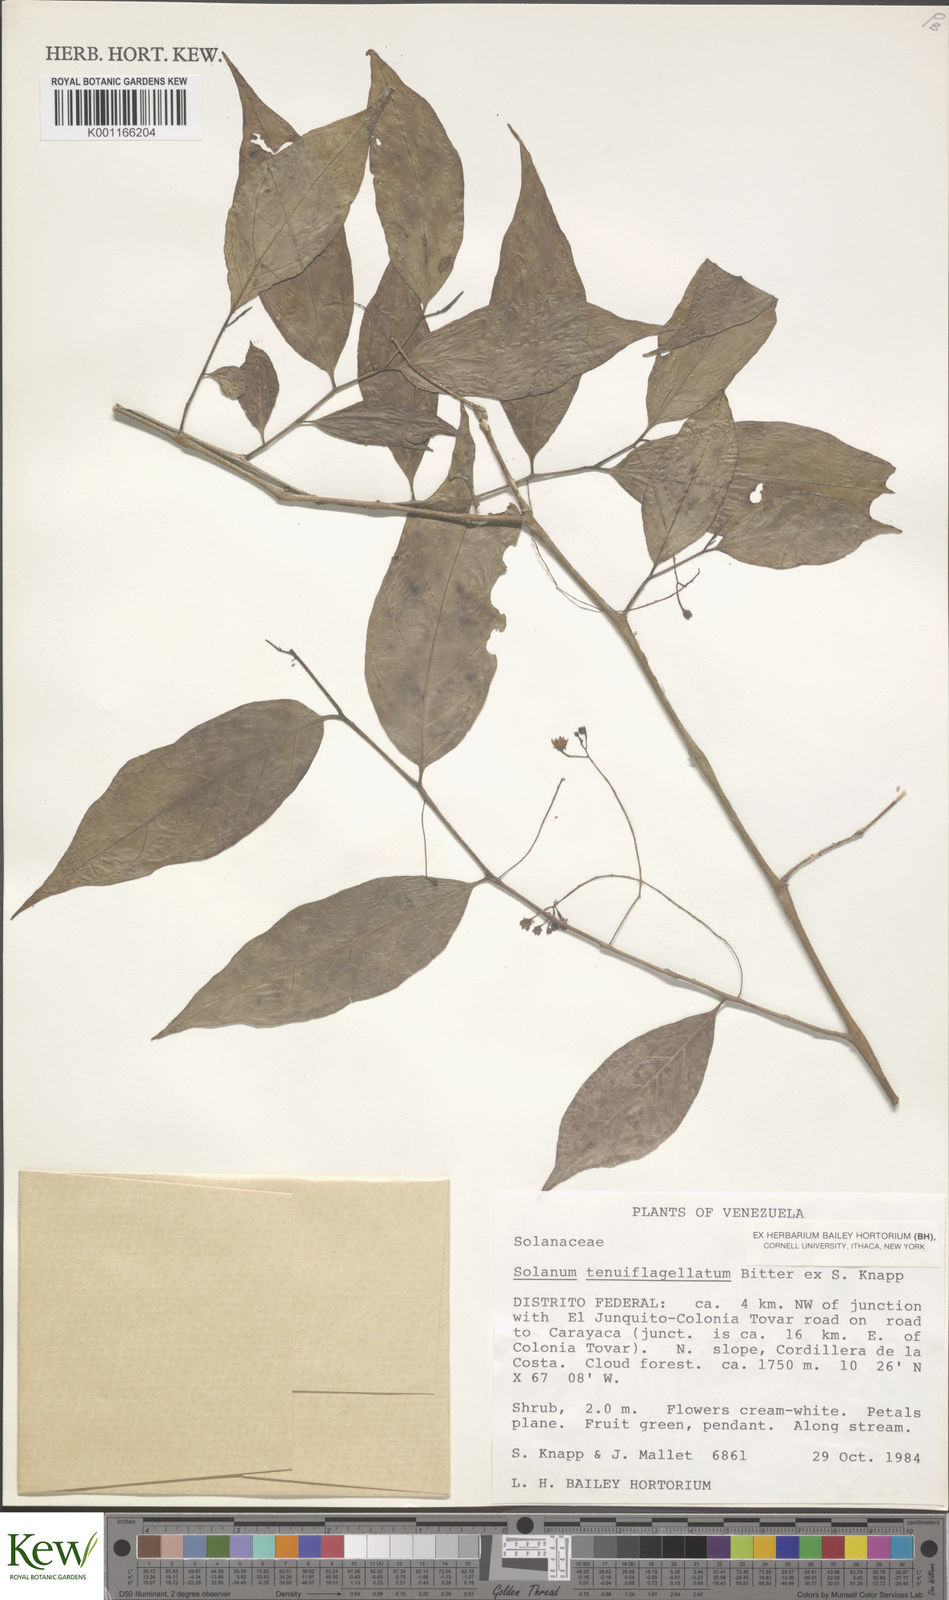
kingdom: Plantae
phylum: Tracheophyta
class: Magnoliopsida
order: Solanales
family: Solanaceae
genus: Solanum
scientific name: Solanum tenuiflagellatum
